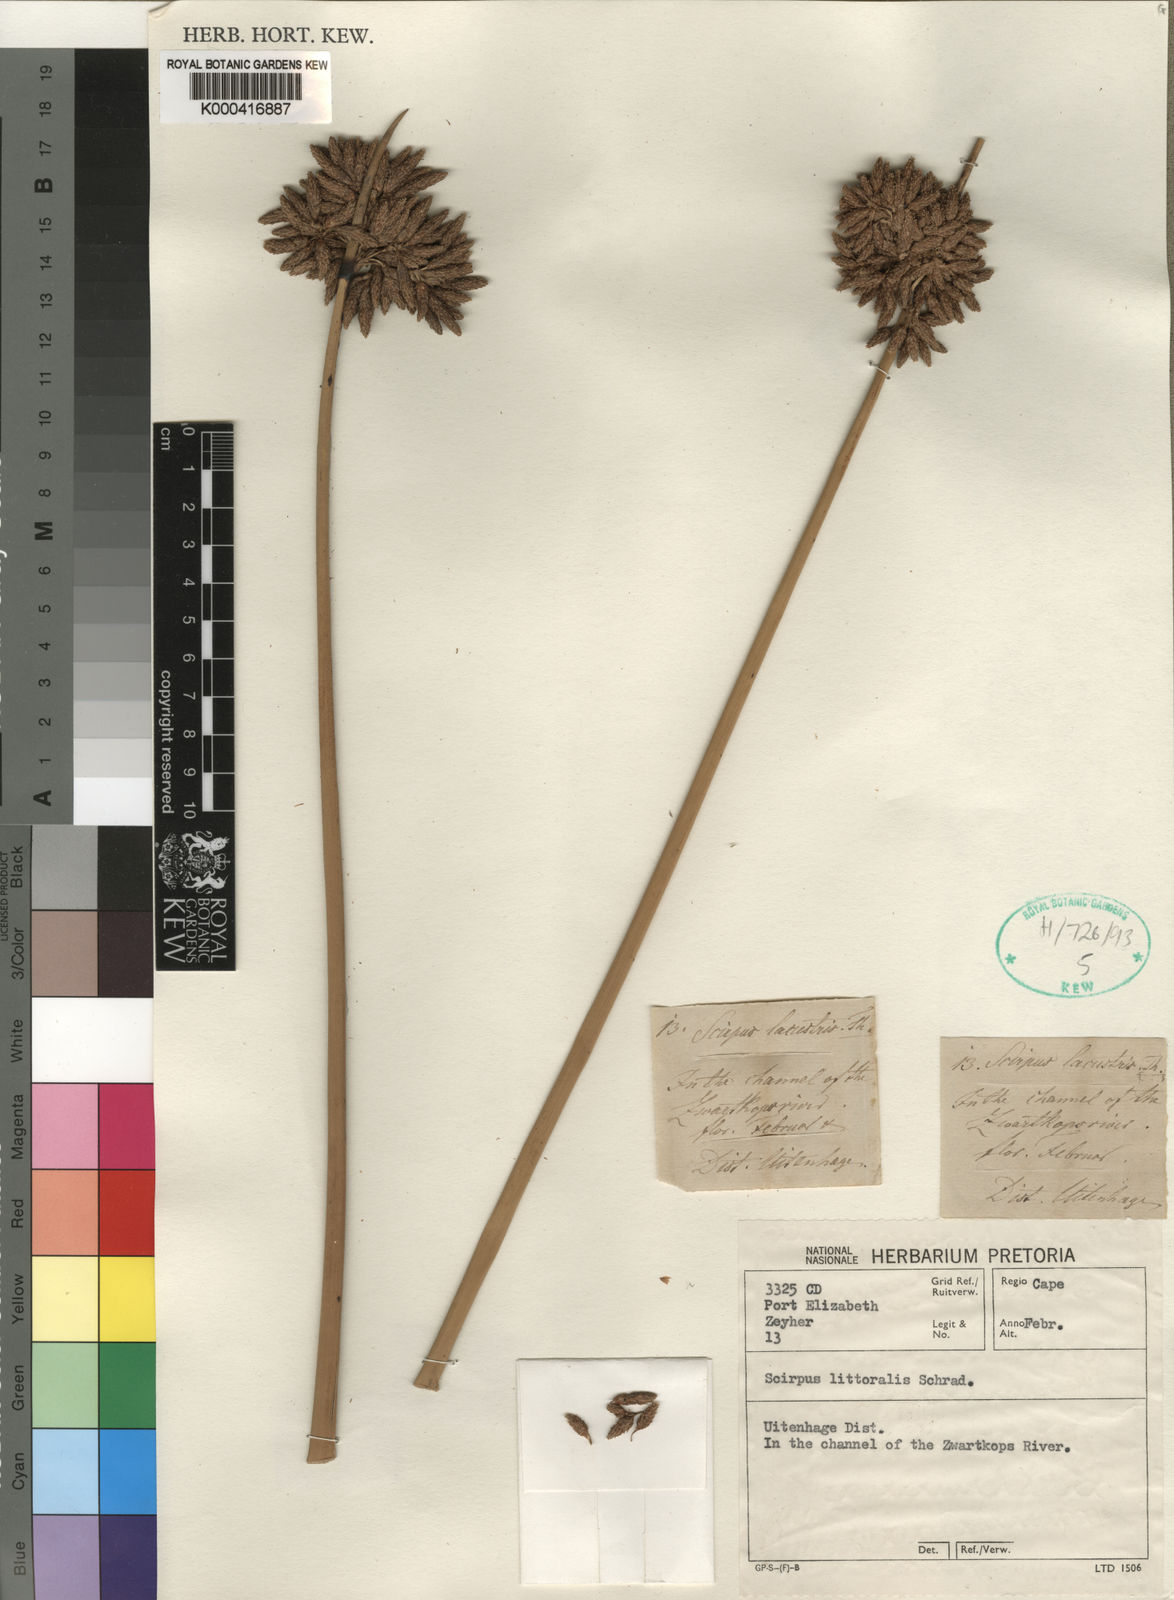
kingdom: Plantae
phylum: Tracheophyta
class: Liliopsida
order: Poales
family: Cyperaceae
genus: Schoenoplectus
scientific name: Schoenoplectus litoralis
